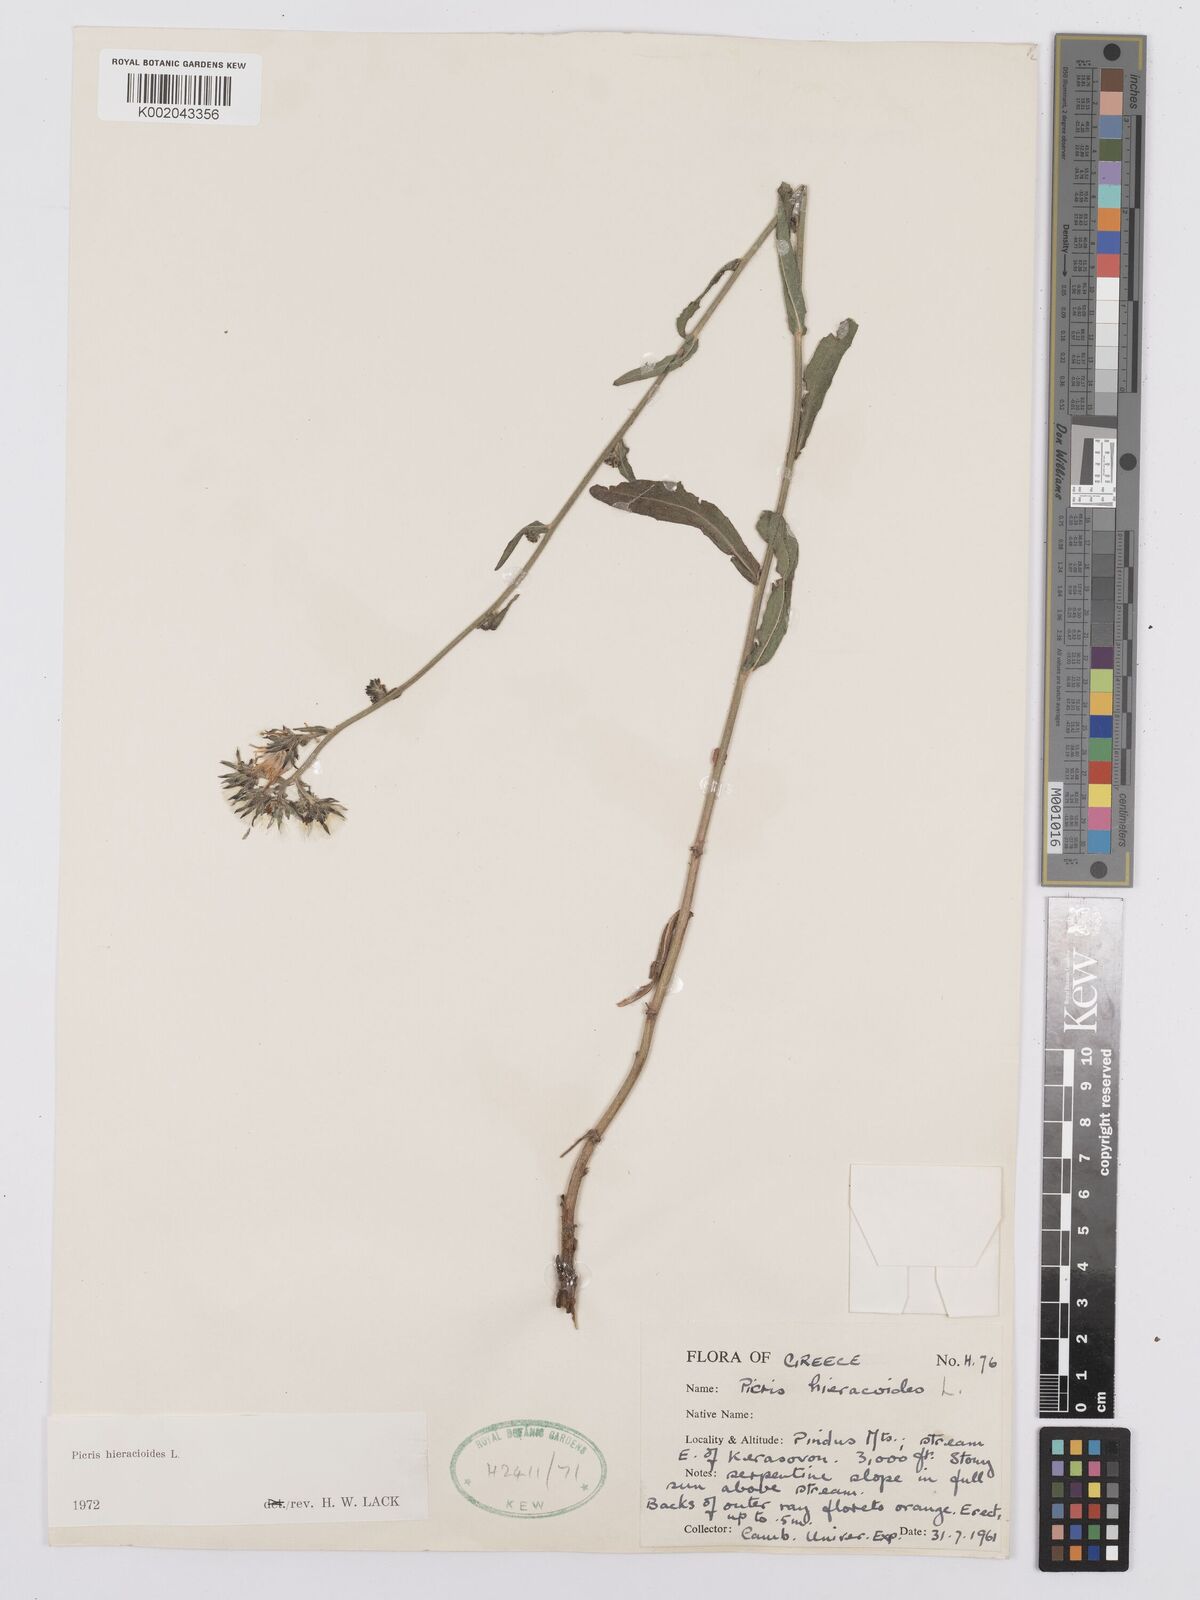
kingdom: Plantae
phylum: Tracheophyta
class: Magnoliopsida
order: Asterales
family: Asteraceae
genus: Picris
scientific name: Picris hieracioides
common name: Hawkweed oxtongue
